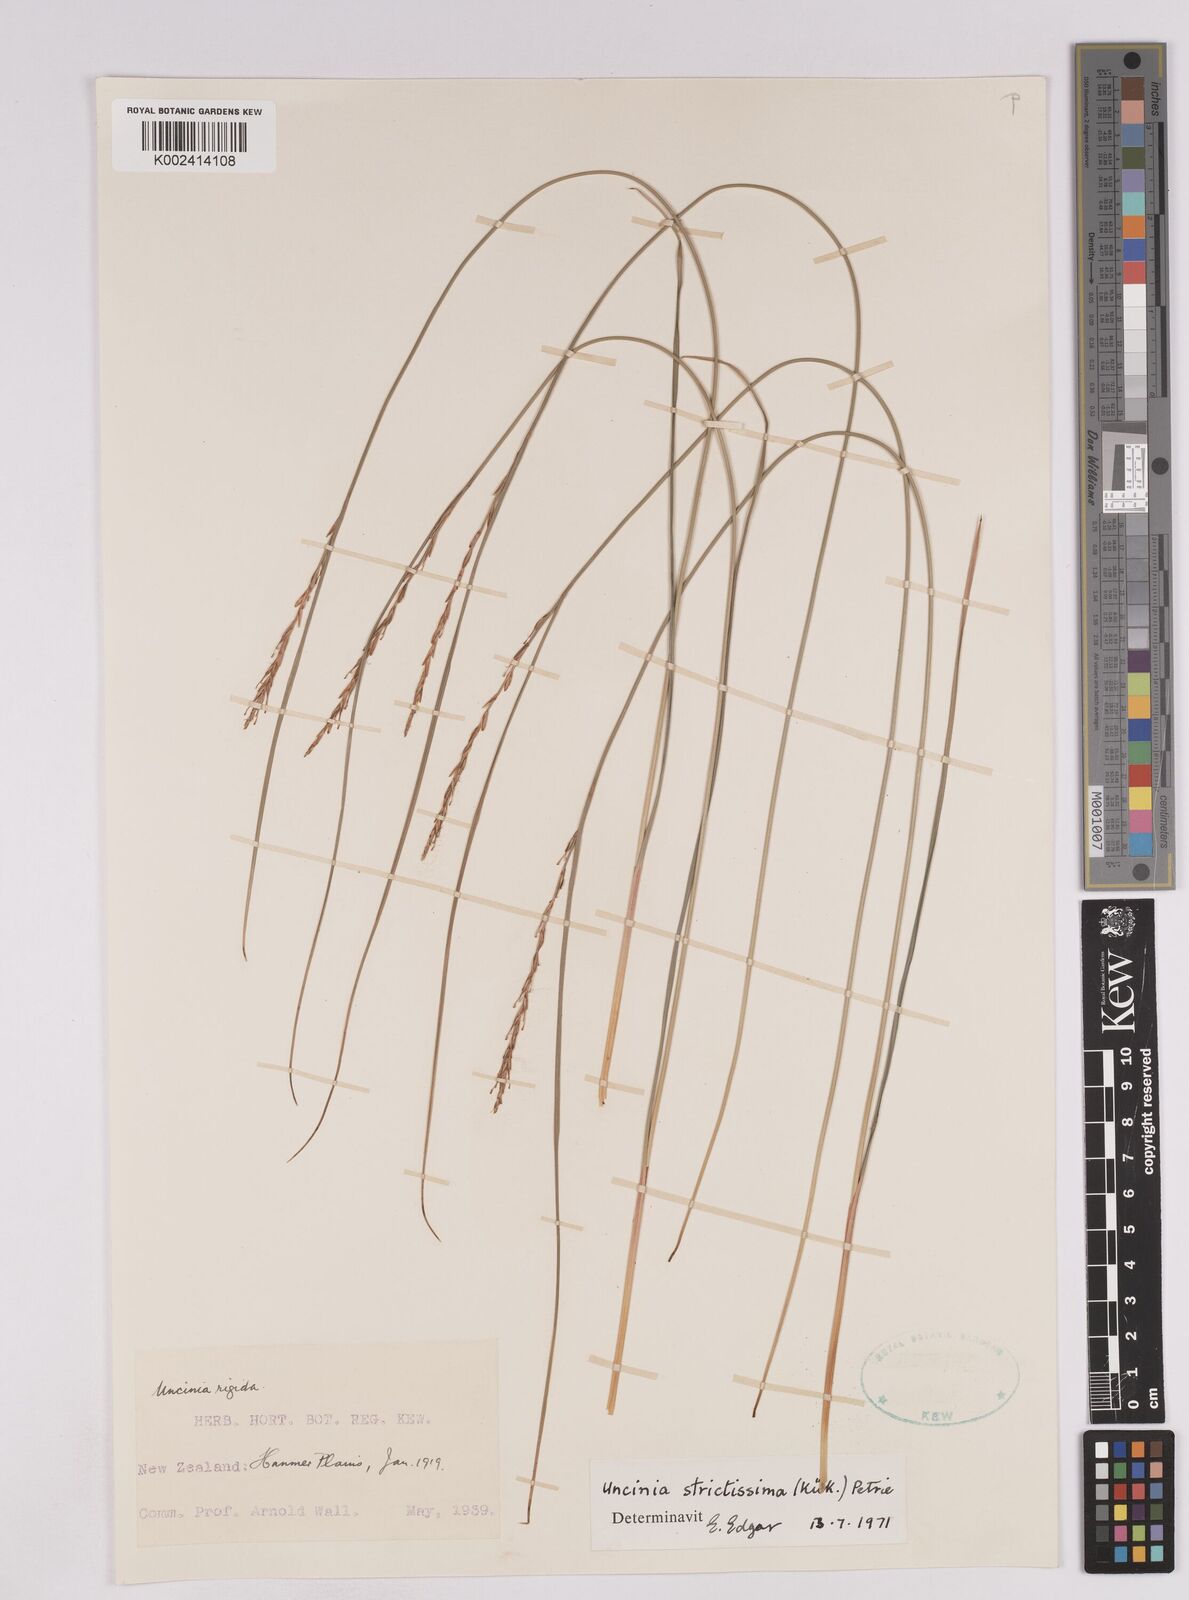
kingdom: Plantae
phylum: Tracheophyta
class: Liliopsida
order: Poales
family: Cyperaceae
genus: Carex
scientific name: Carex strictissima
